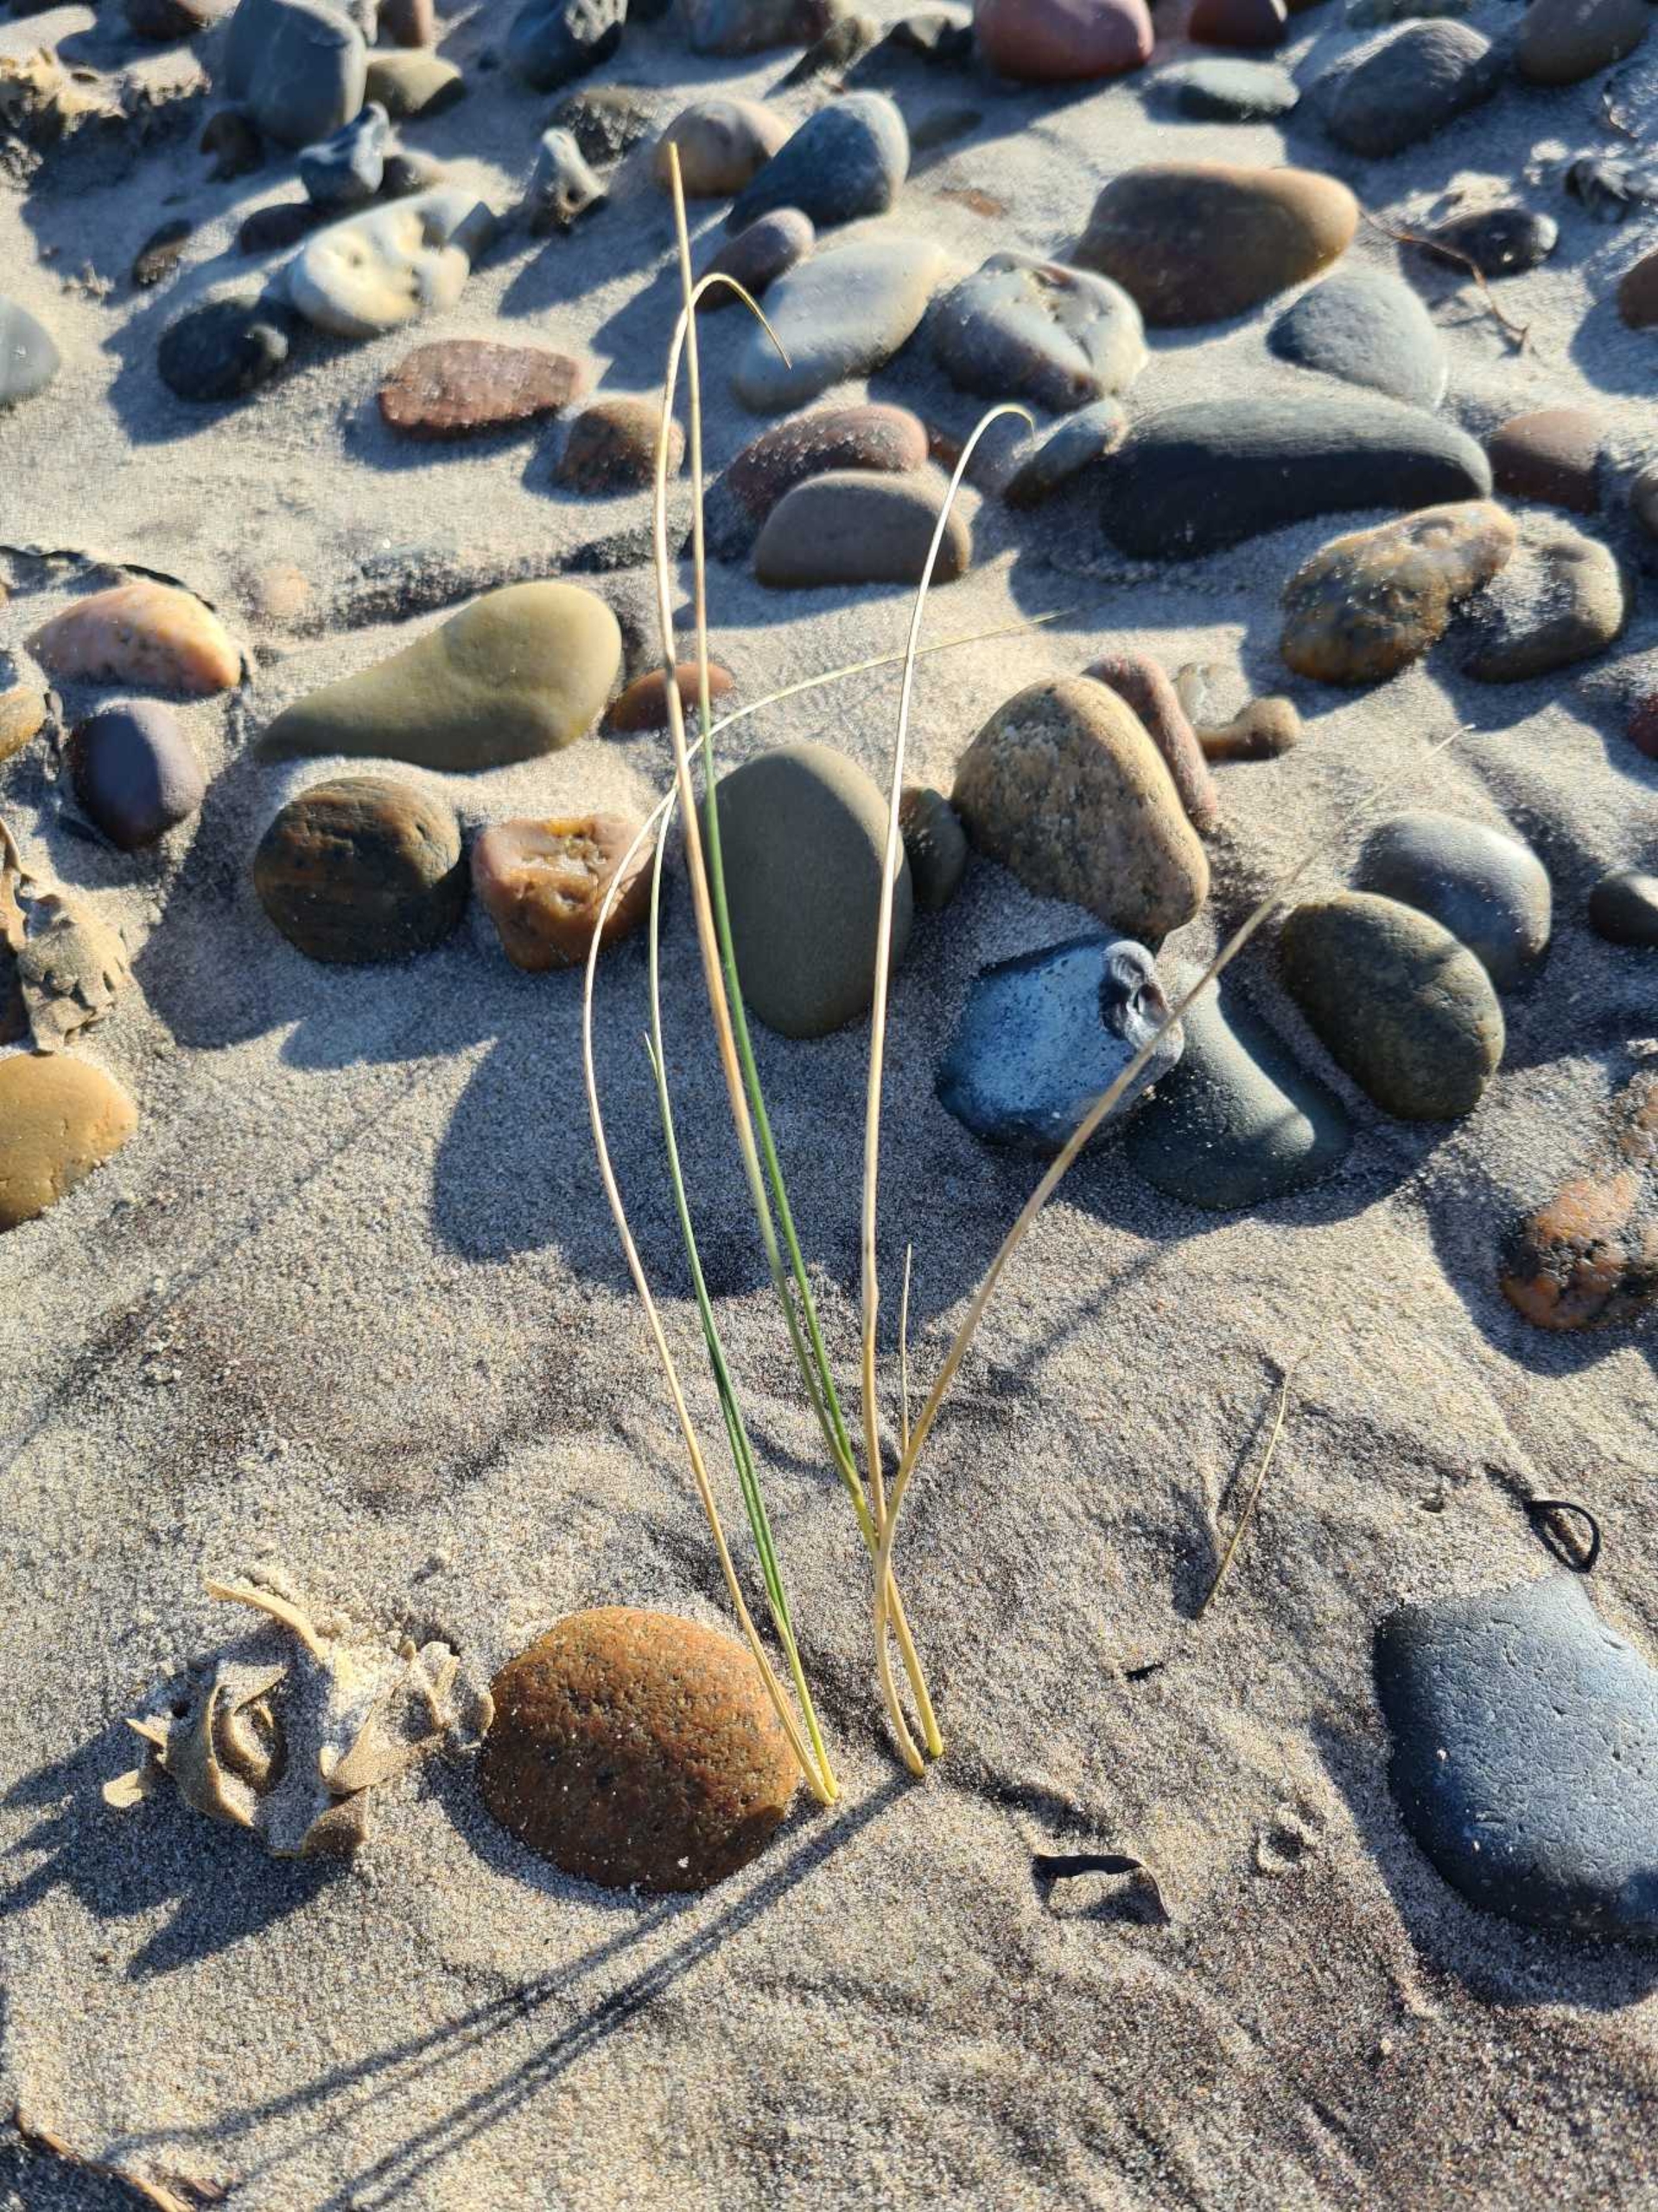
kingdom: Plantae
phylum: Tracheophyta
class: Liliopsida
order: Poales
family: Poaceae
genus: Calamagrostis
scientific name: Calamagrostis arenaria
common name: Sand-hjælme
